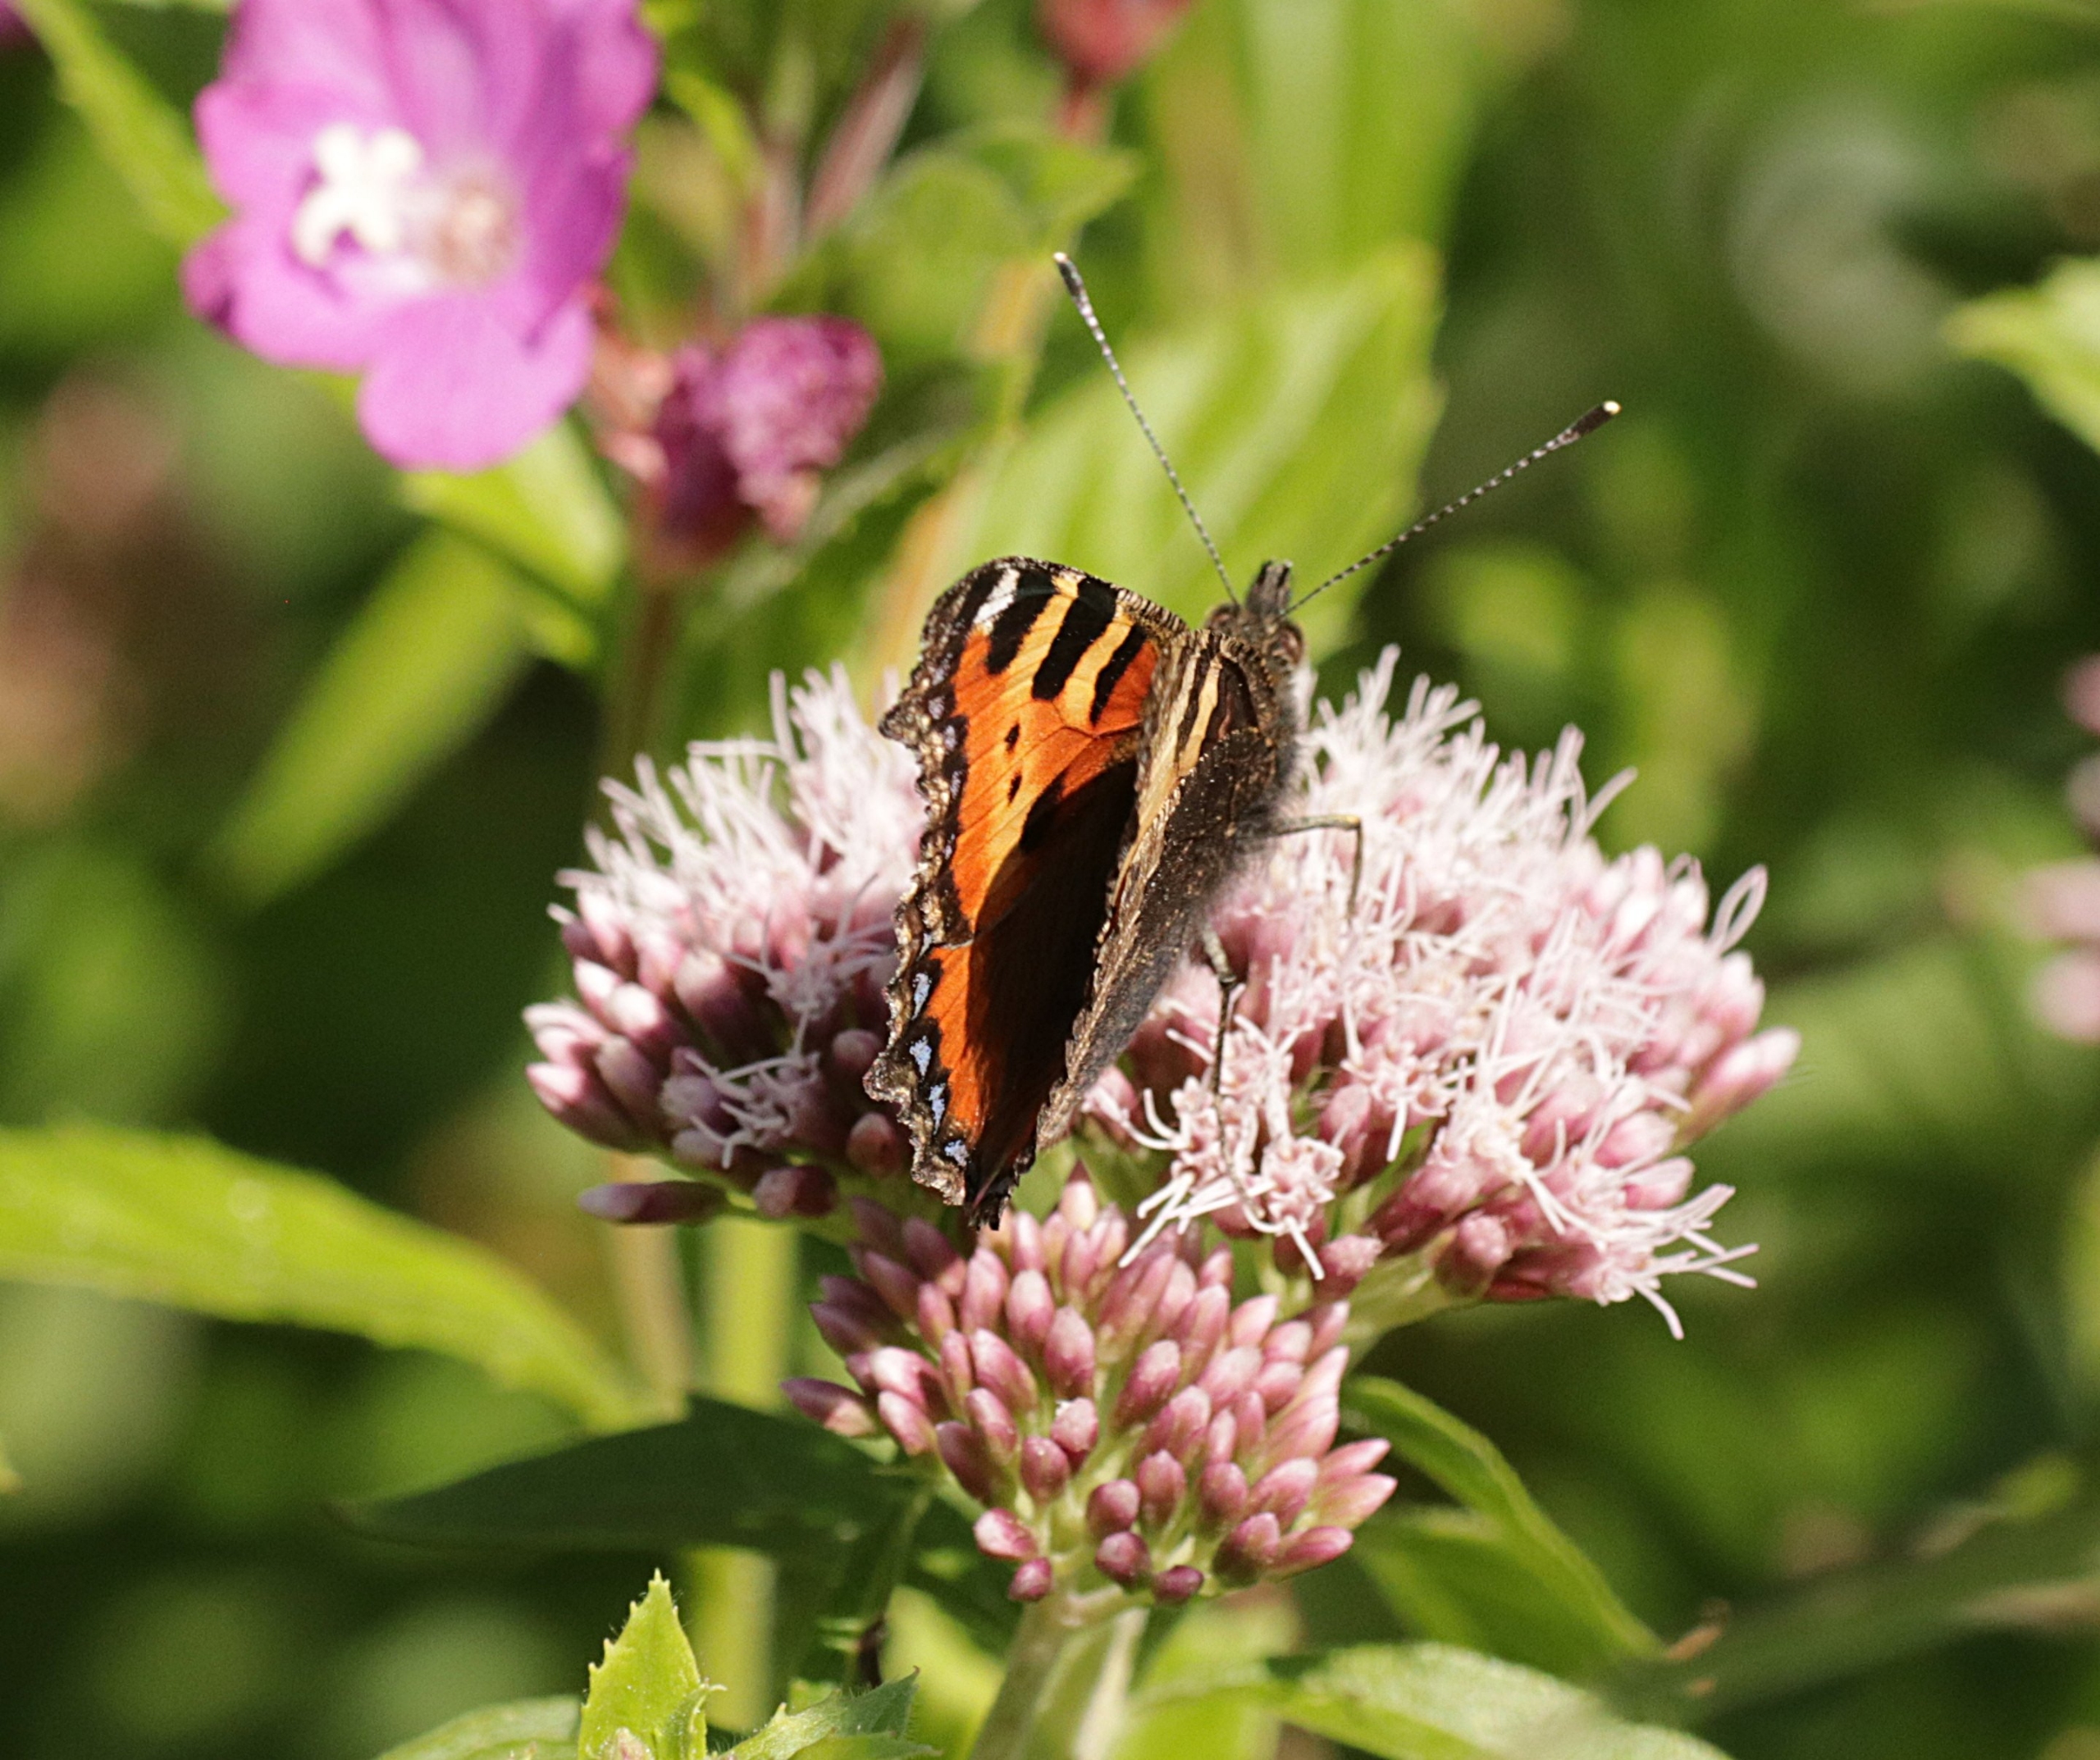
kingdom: Animalia
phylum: Arthropoda
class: Insecta
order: Lepidoptera
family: Nymphalidae
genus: Aglais
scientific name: Aglais urticae
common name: Nældens takvinge
